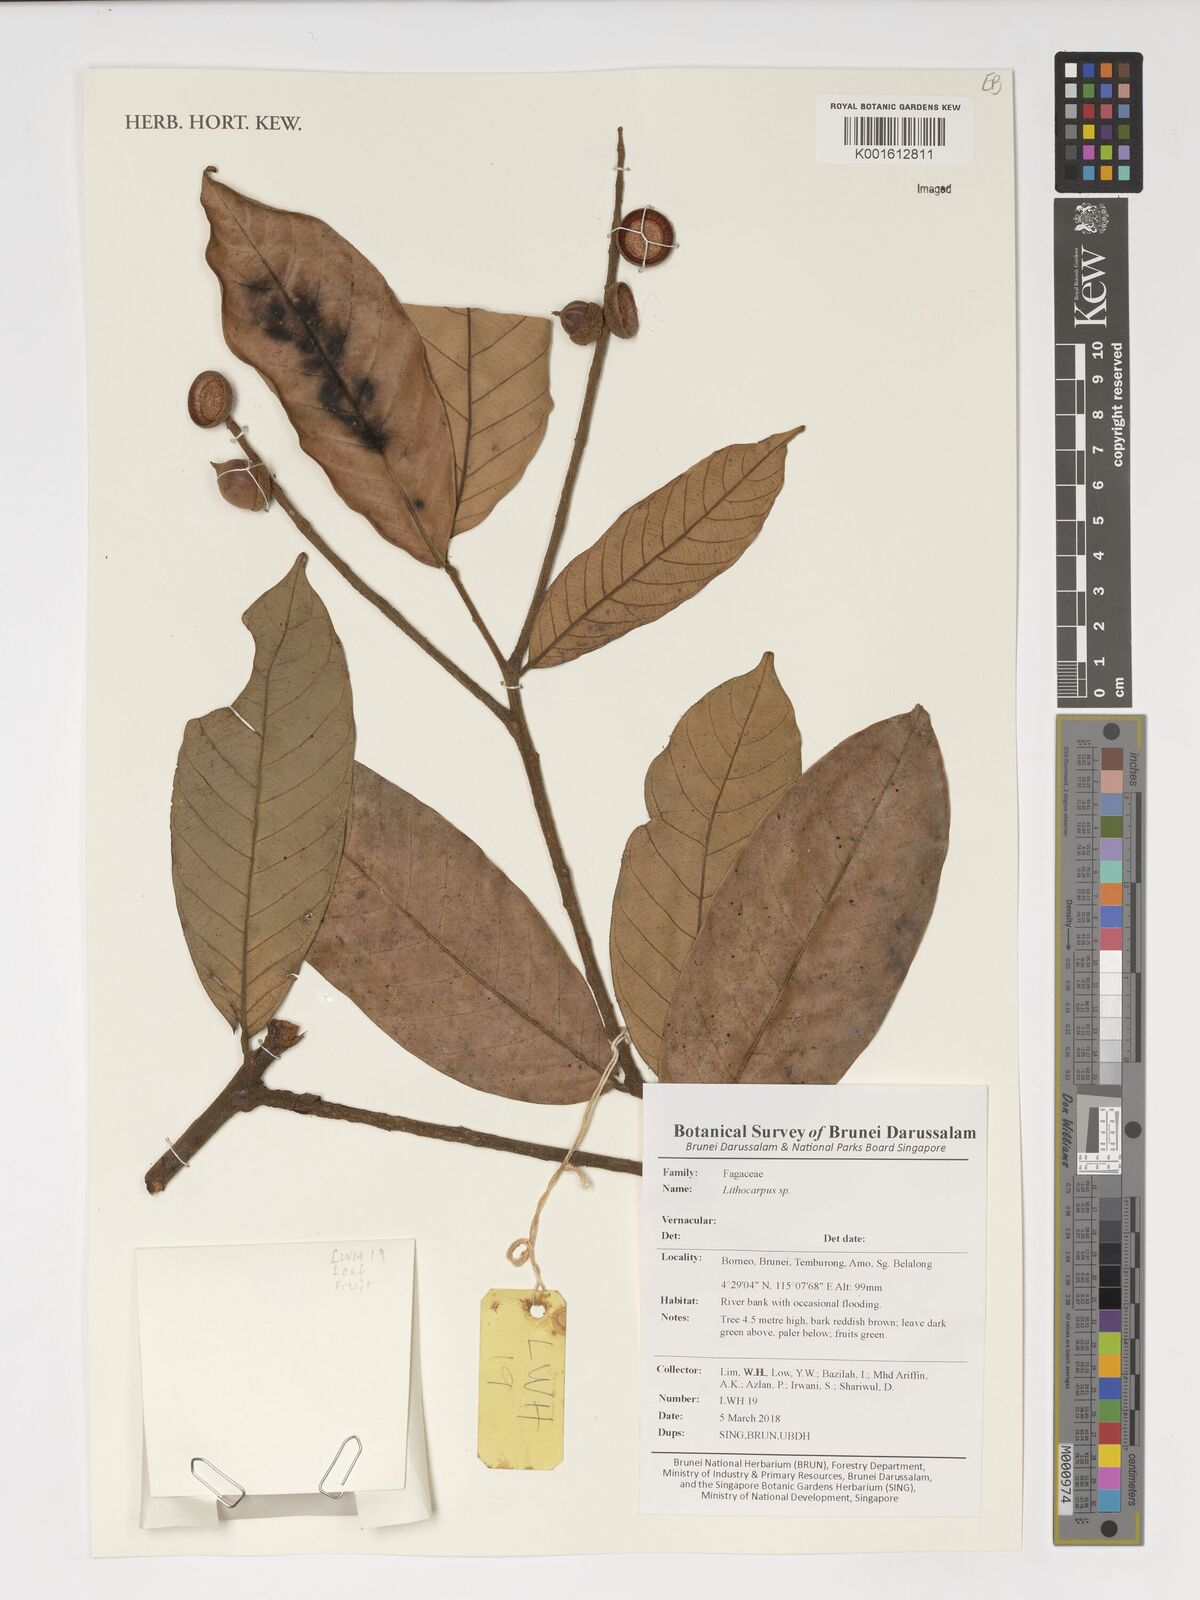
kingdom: Plantae
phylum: Tracheophyta
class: Magnoliopsida
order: Fagales
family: Fagaceae
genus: Lithocarpus
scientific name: Lithocarpus
